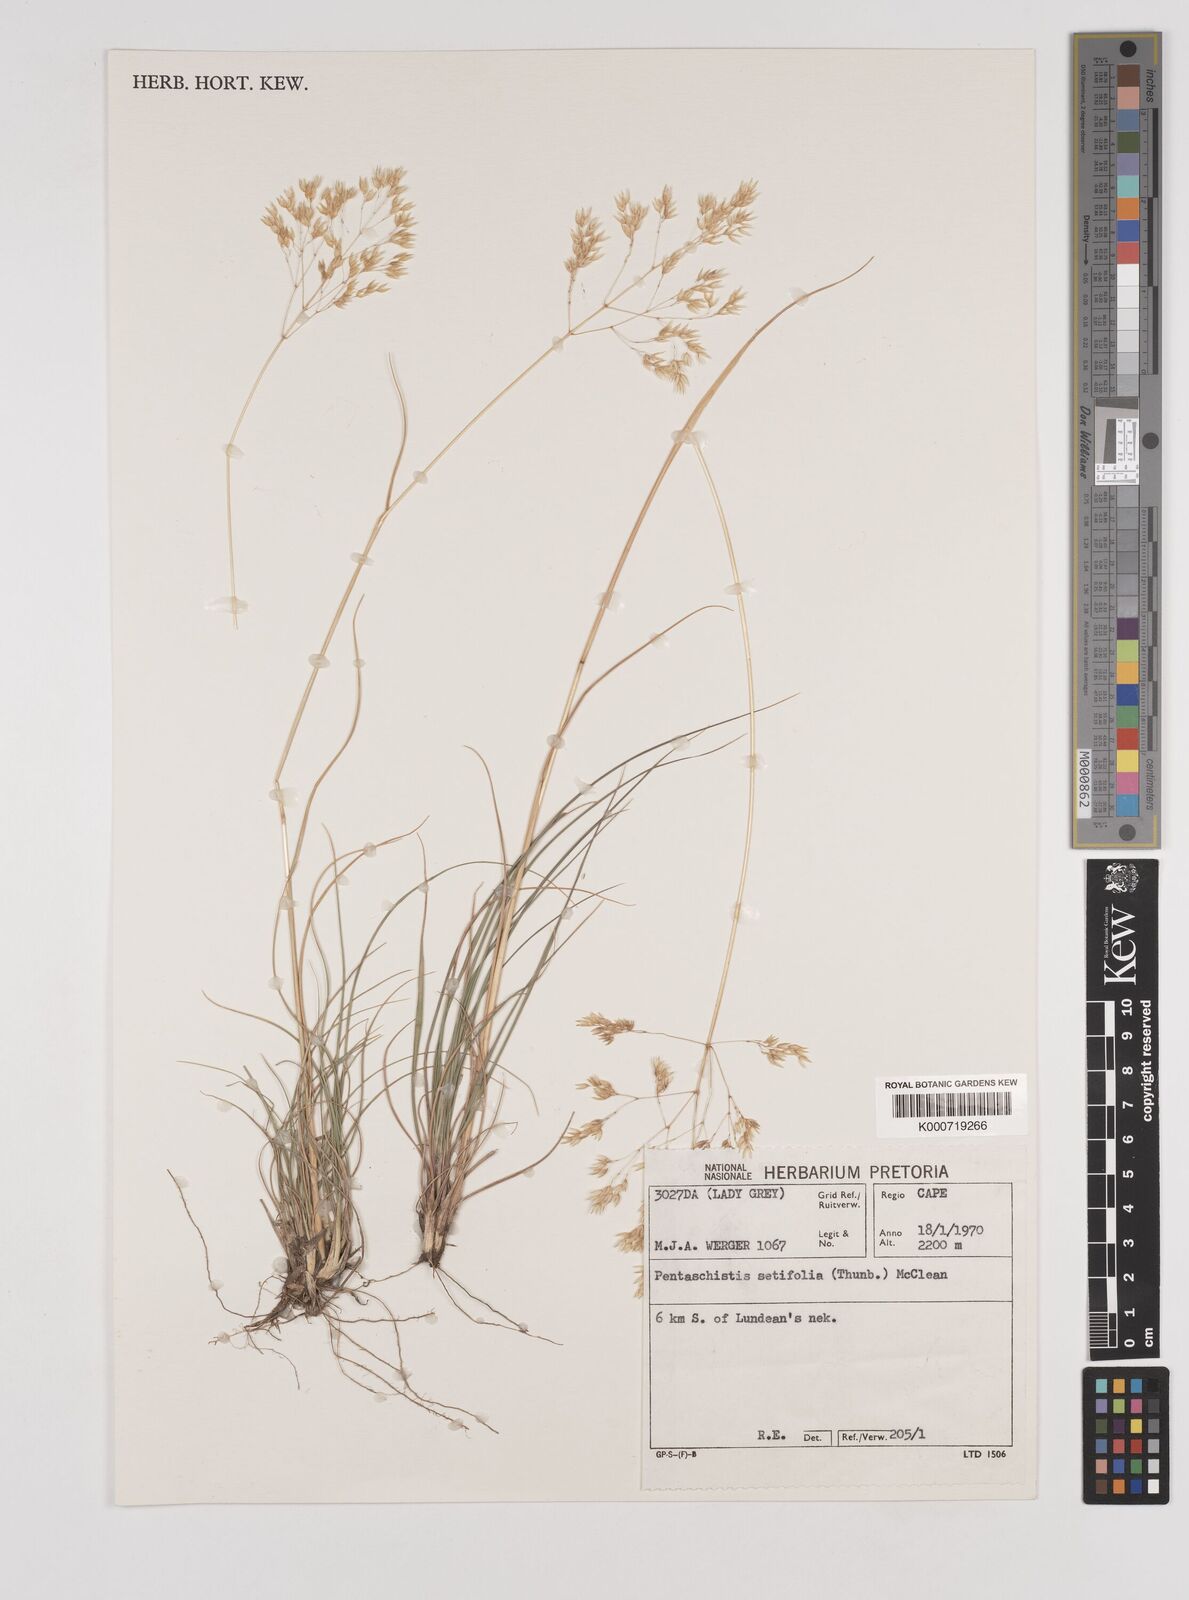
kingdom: Plantae
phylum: Tracheophyta
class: Liliopsida
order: Poales
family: Poaceae
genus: Pentameris
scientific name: Pentameris setifolia
